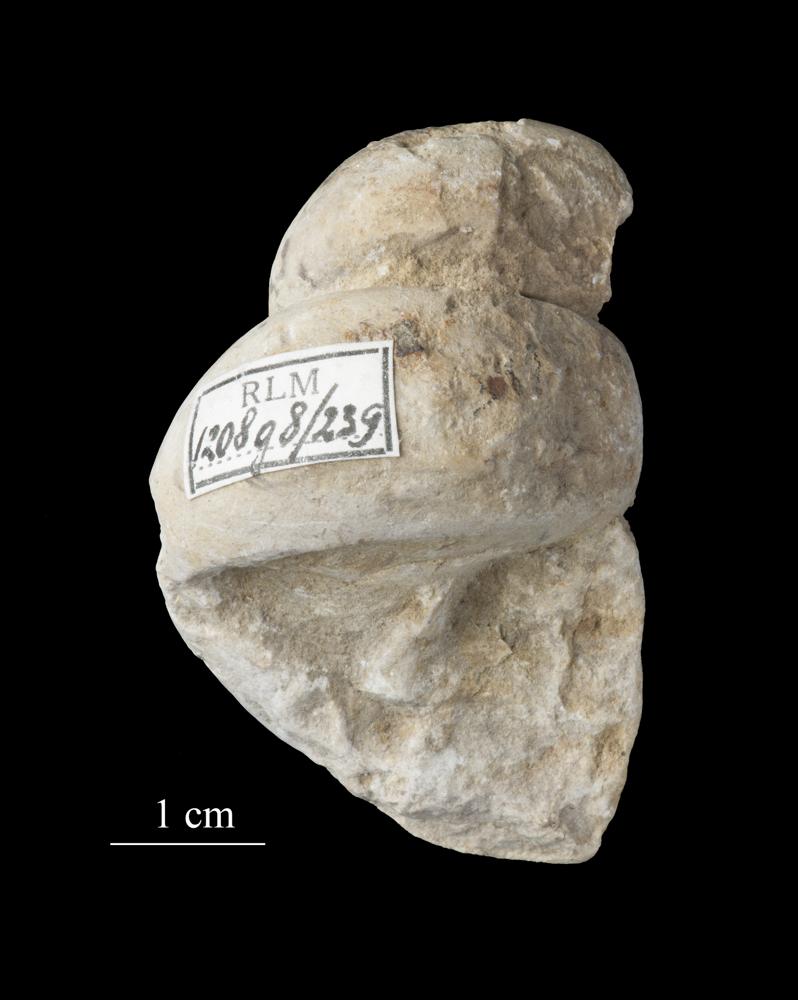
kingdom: Animalia
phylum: Mollusca
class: Gastropoda
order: Pleurotomariida
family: Murchisoniidae
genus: Murchisonia
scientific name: Murchisonia insignis
